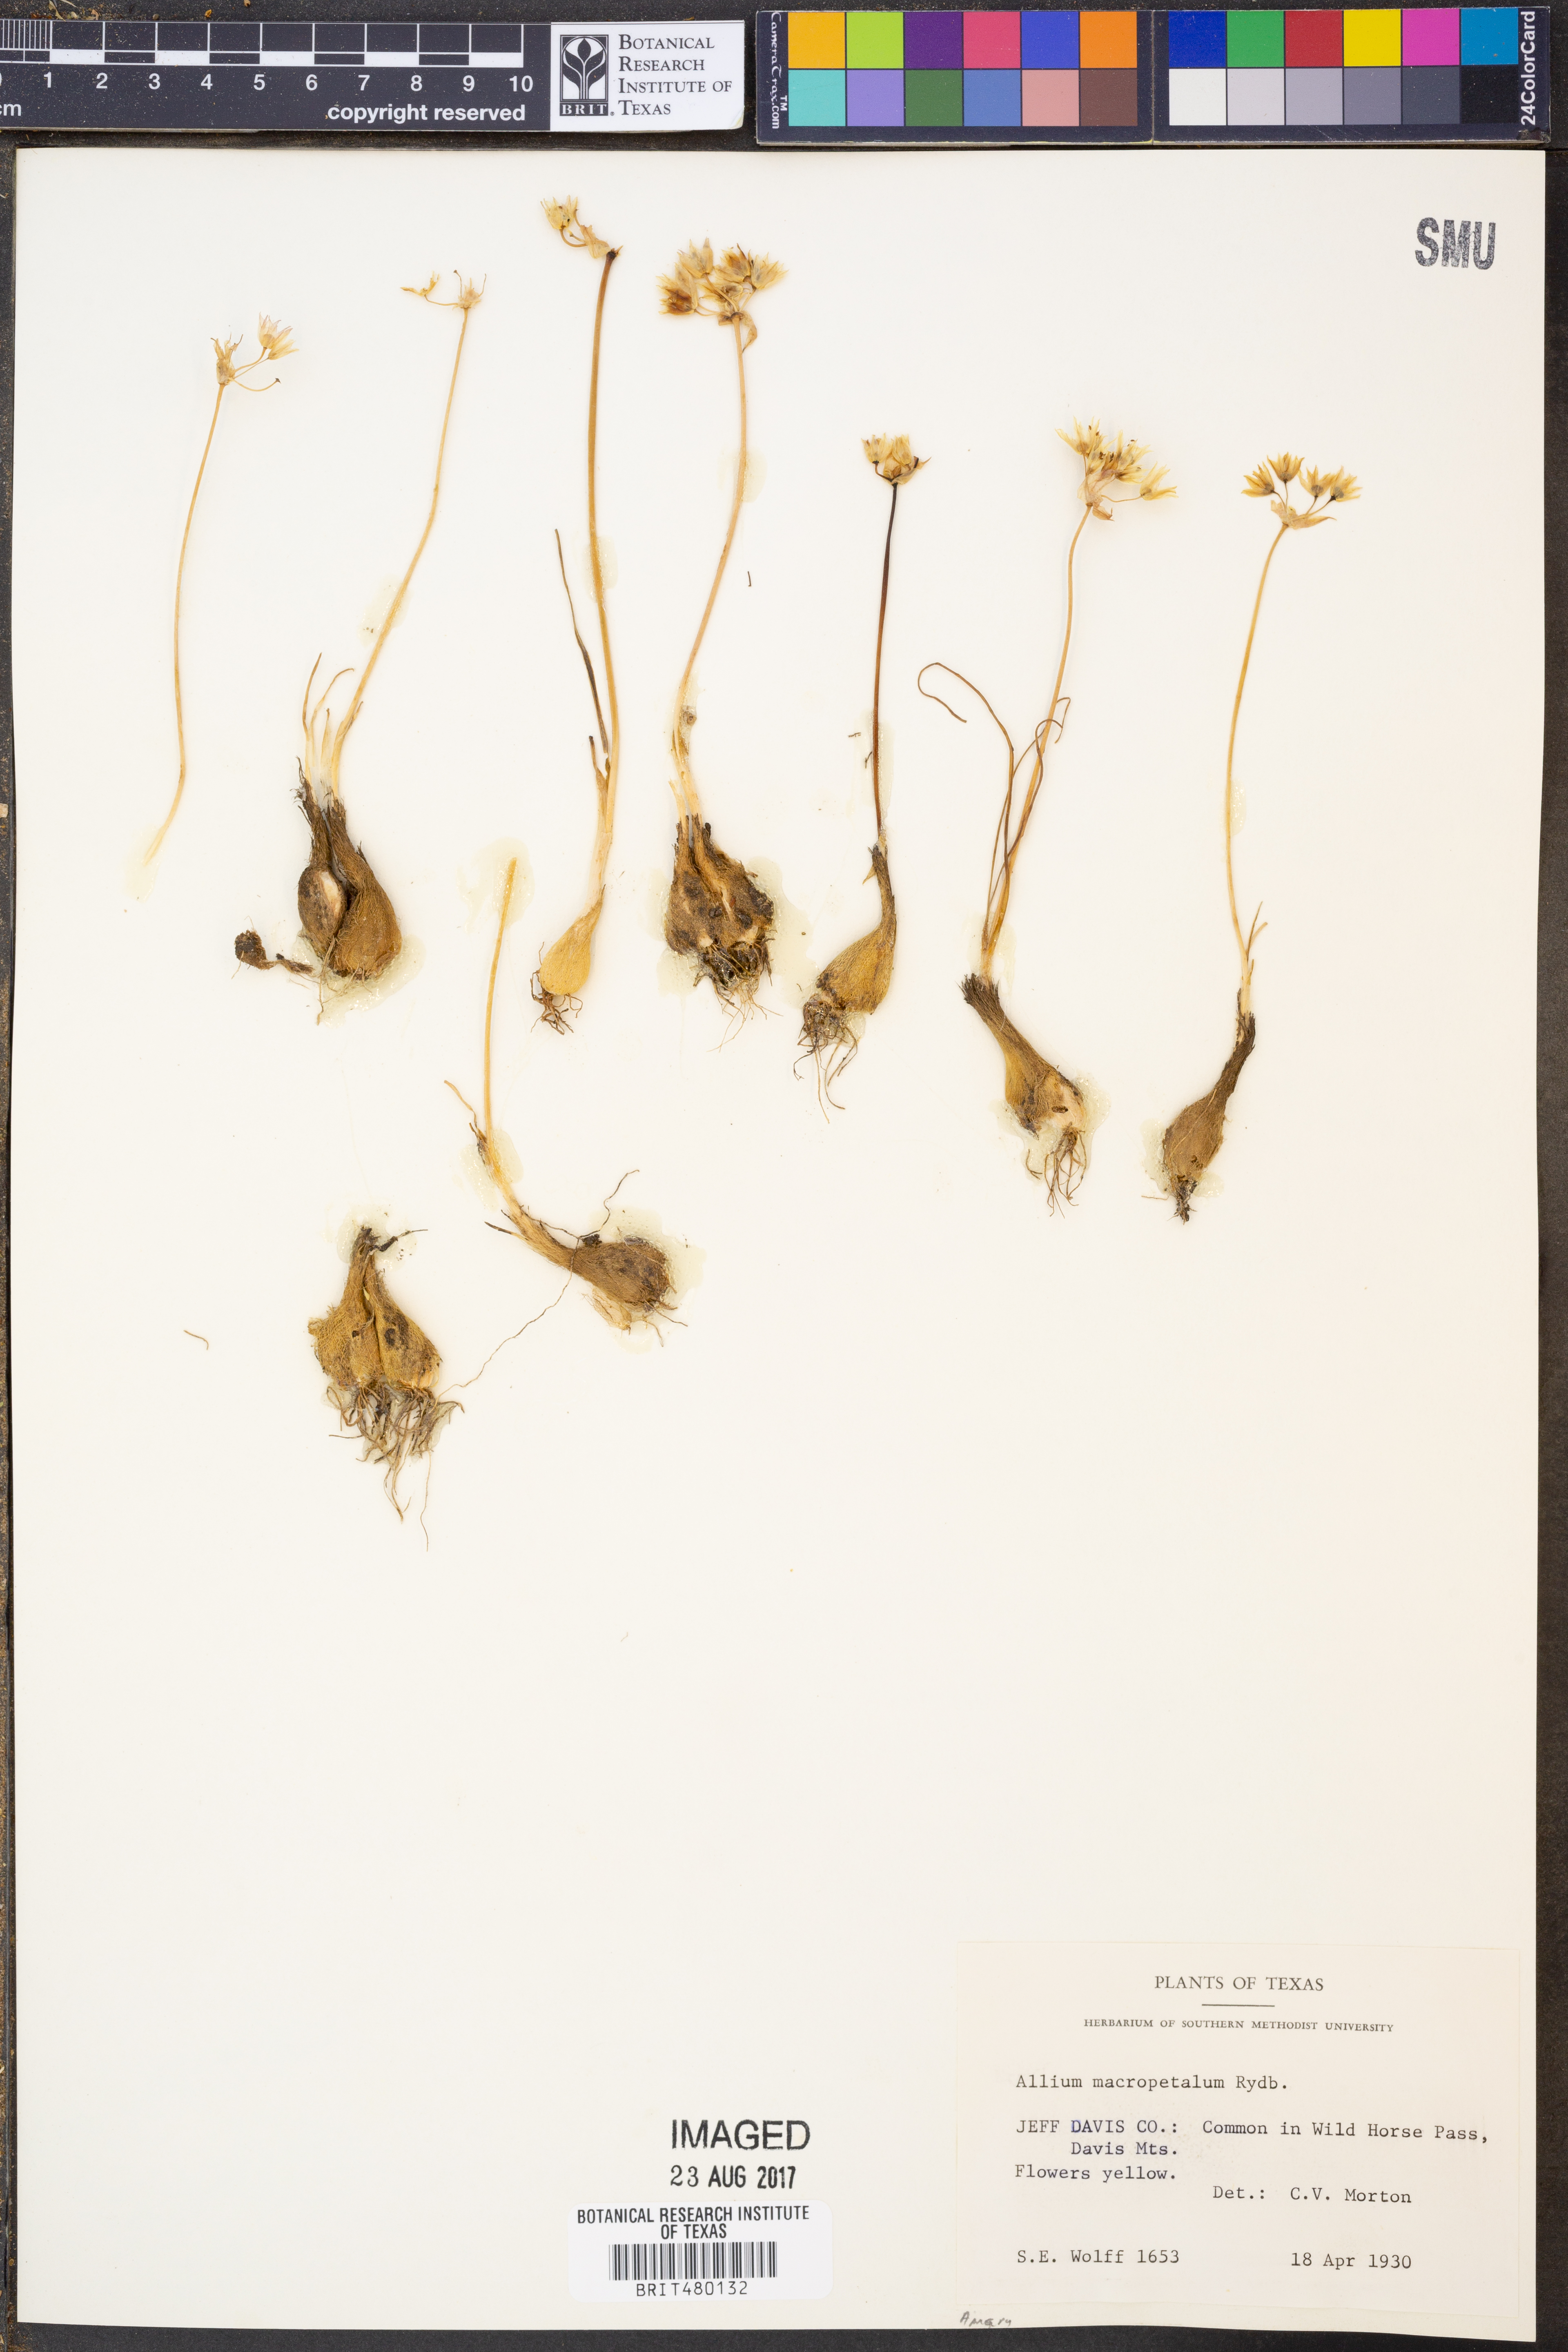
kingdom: Plantae
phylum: Tracheophyta
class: Liliopsida
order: Asparagales
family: Amaryllidaceae
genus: Allium
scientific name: Allium macropetalum
